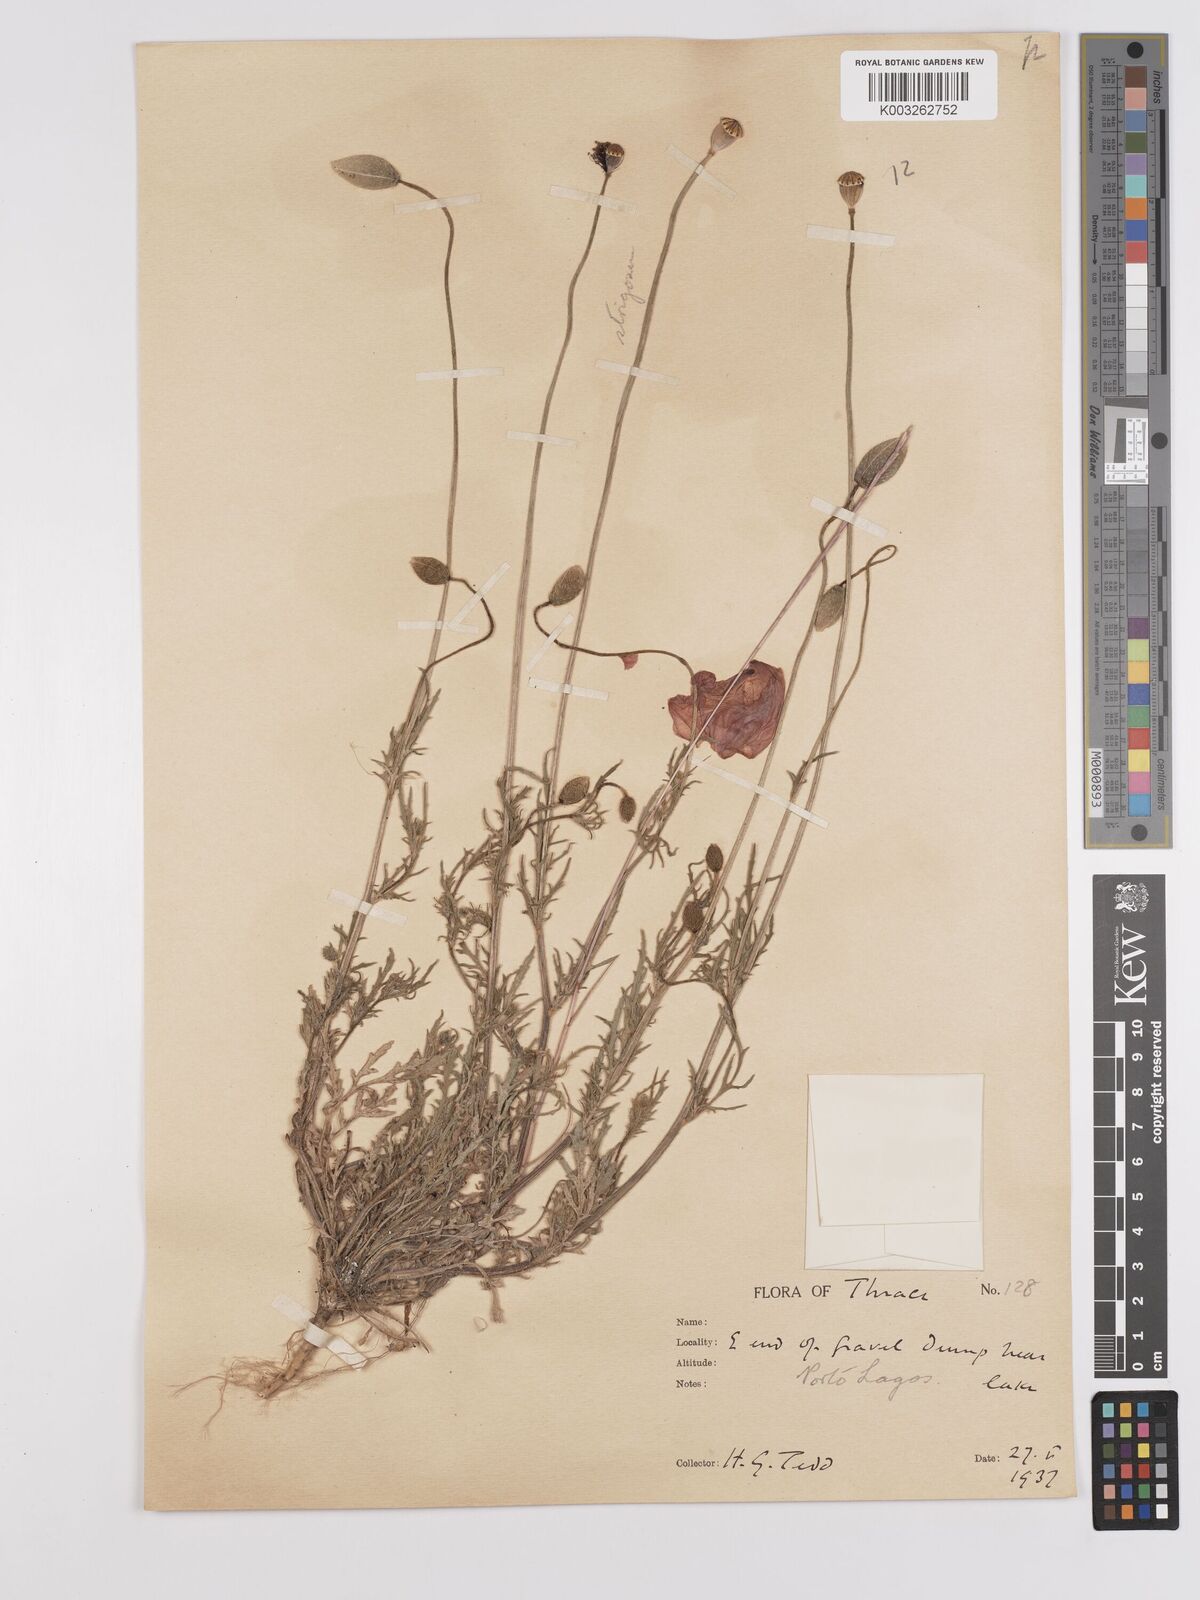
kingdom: Plantae
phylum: Tracheophyta
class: Magnoliopsida
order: Ranunculales
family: Papaveraceae
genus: Papaver
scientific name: Papaver
